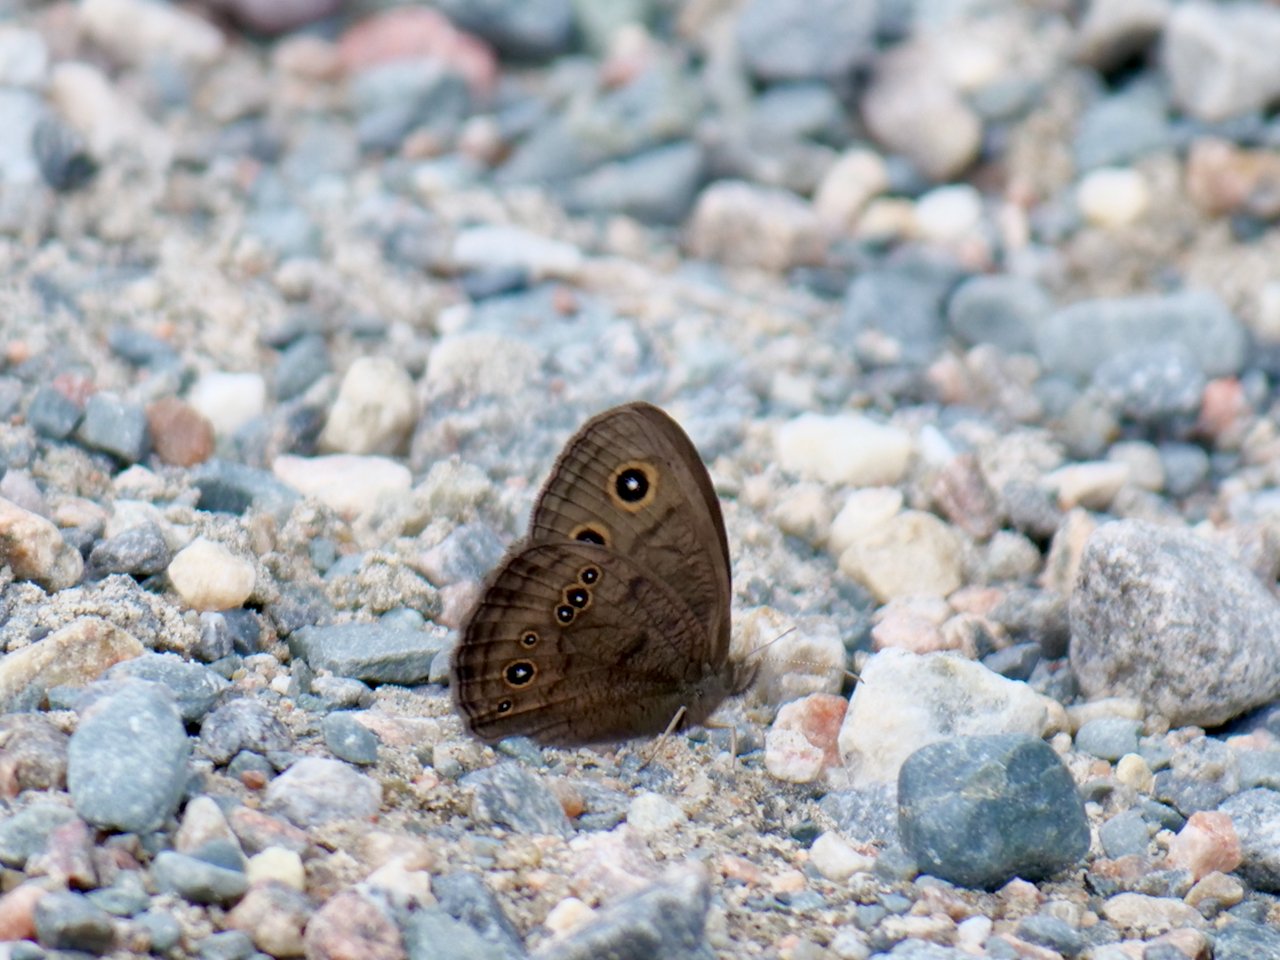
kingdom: Animalia
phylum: Arthropoda
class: Insecta
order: Lepidoptera
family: Nymphalidae
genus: Cercyonis
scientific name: Cercyonis pegala
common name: Common Wood-Nymph
